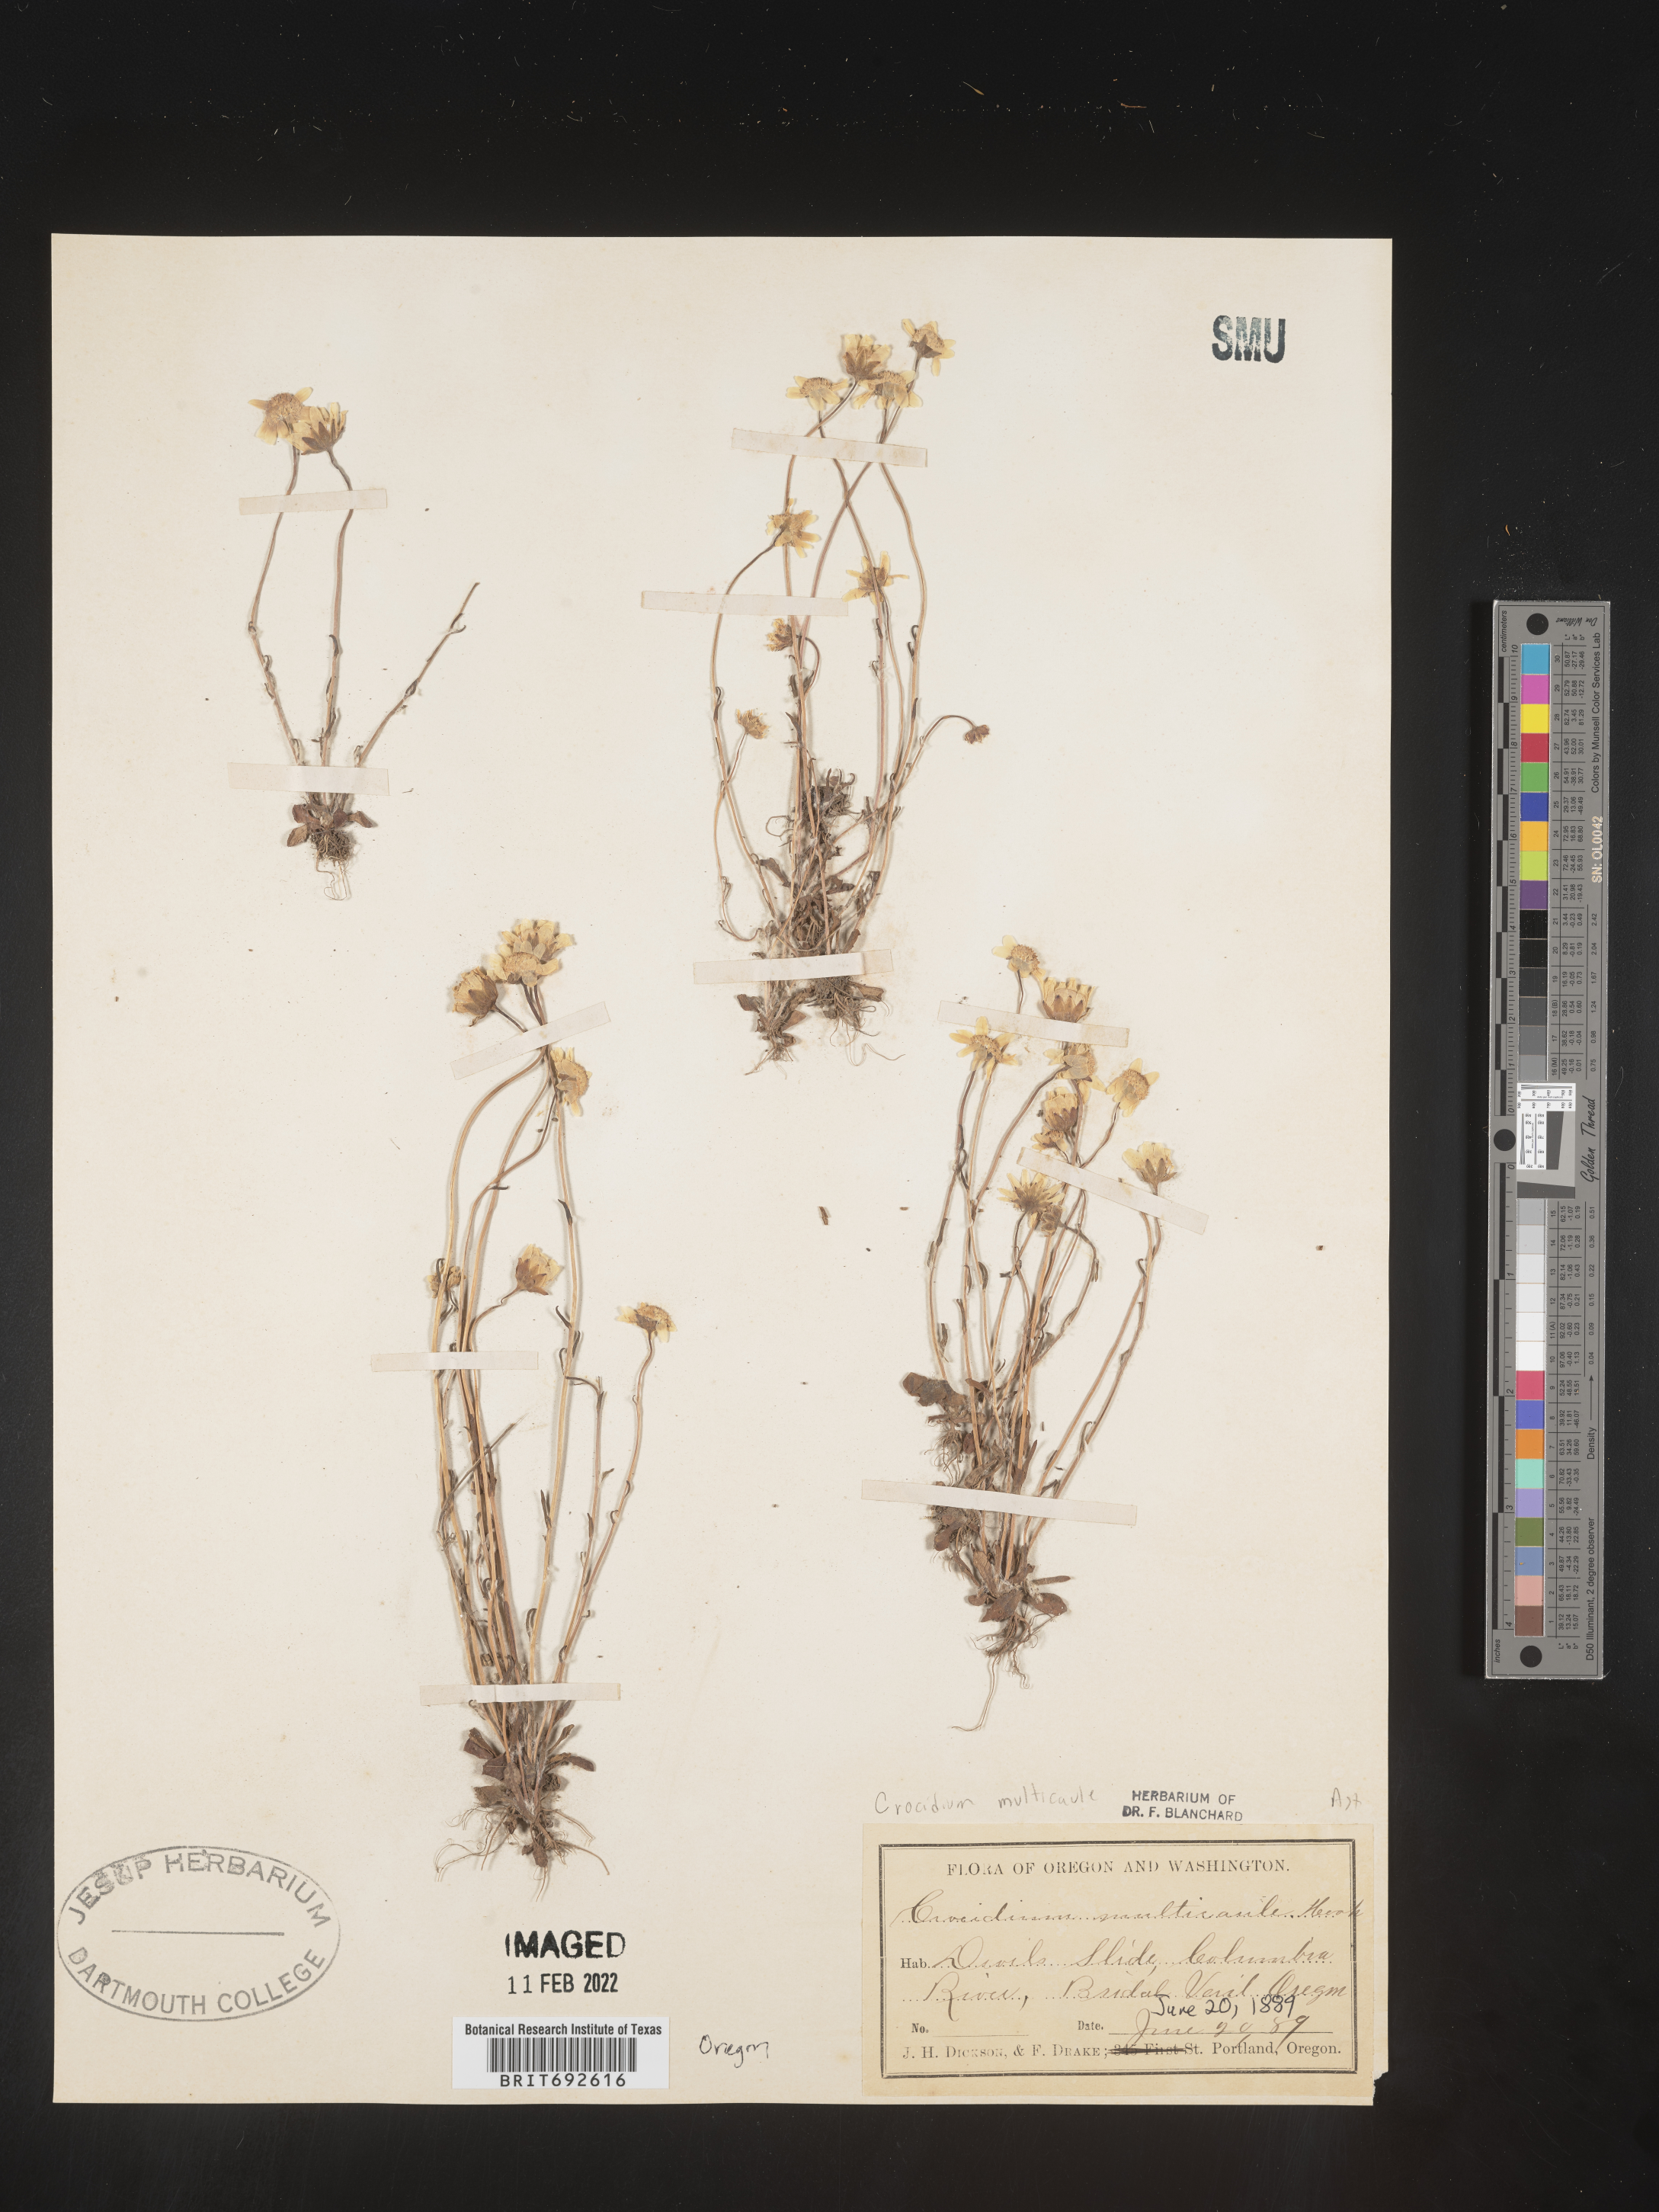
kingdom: Plantae
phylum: Tracheophyta
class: Magnoliopsida
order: Asterales
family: Asteraceae
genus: Crocidium
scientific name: Crocidium
